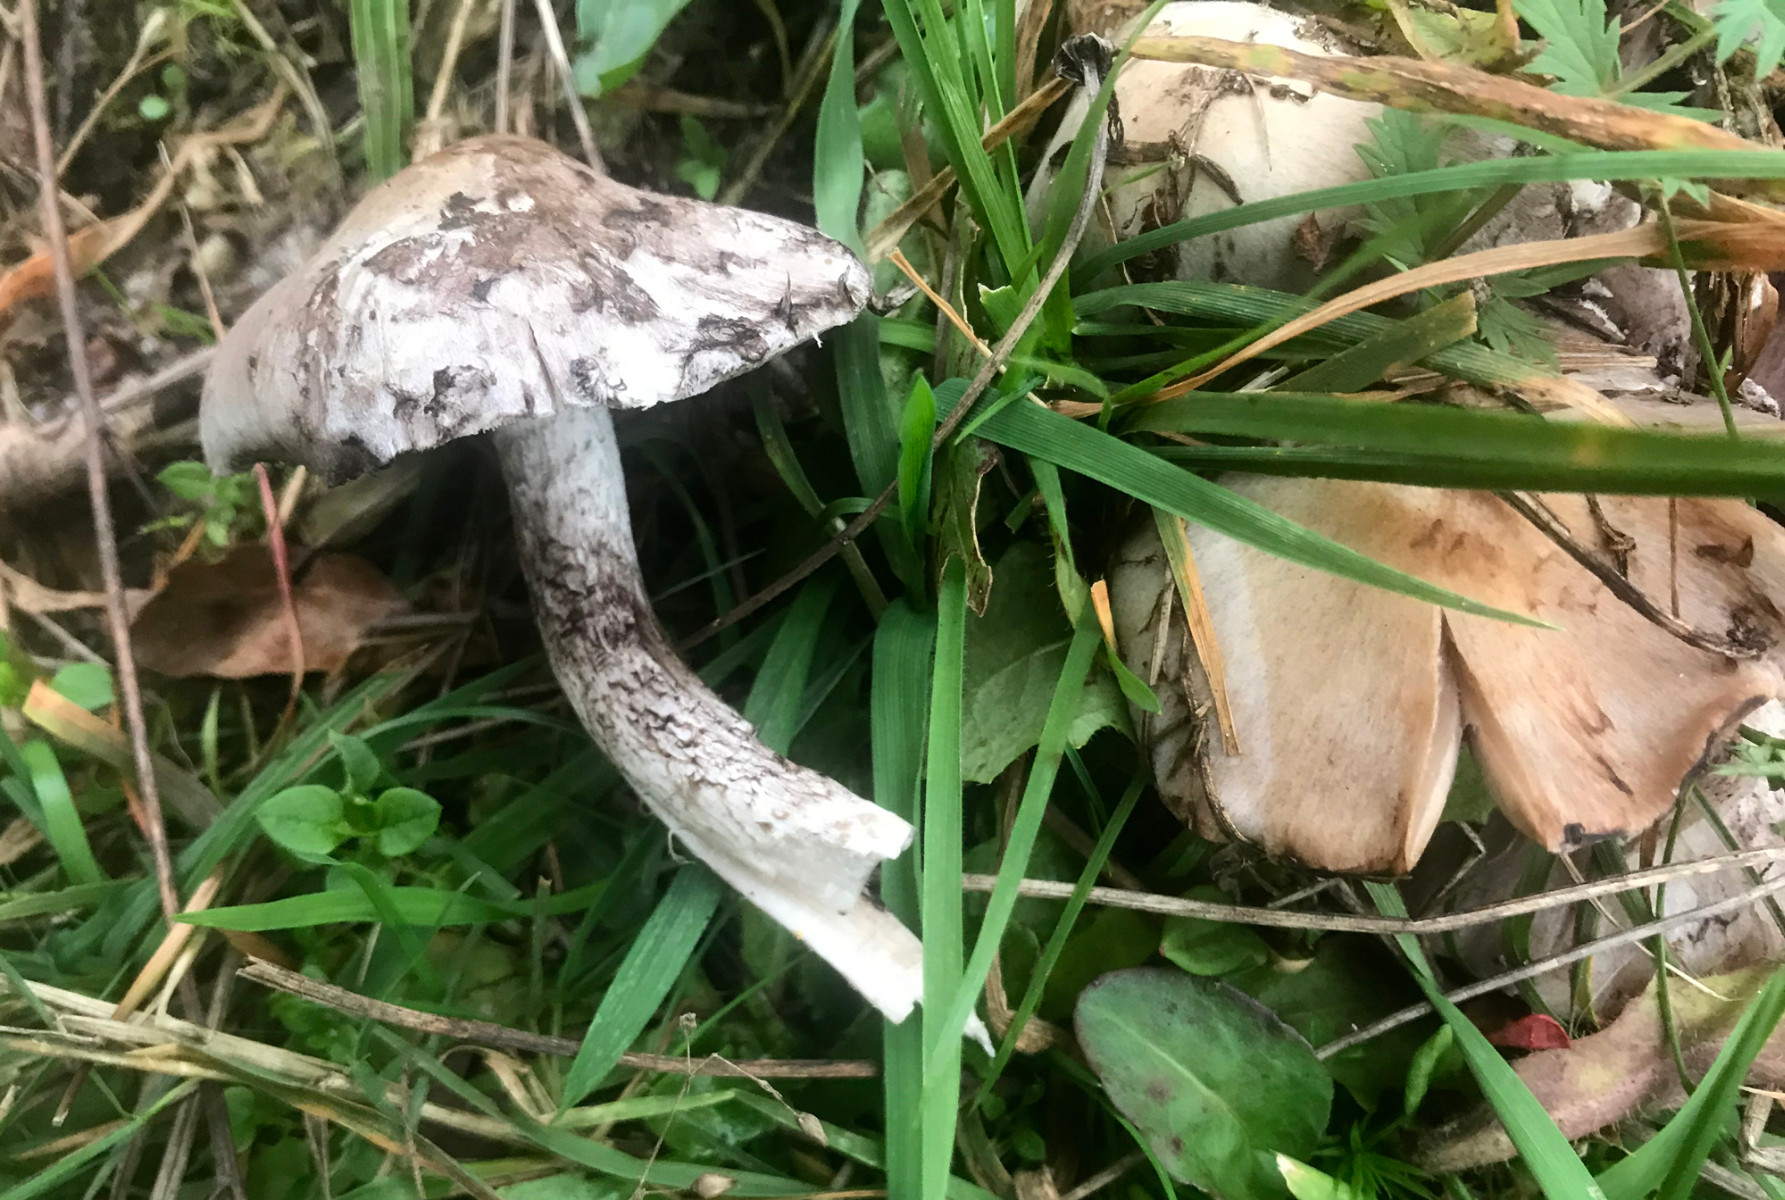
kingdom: Fungi
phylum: Basidiomycota
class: Agaricomycetes
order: Agaricales
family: Psathyrellaceae
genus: Psathyrella
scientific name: Psathyrella
